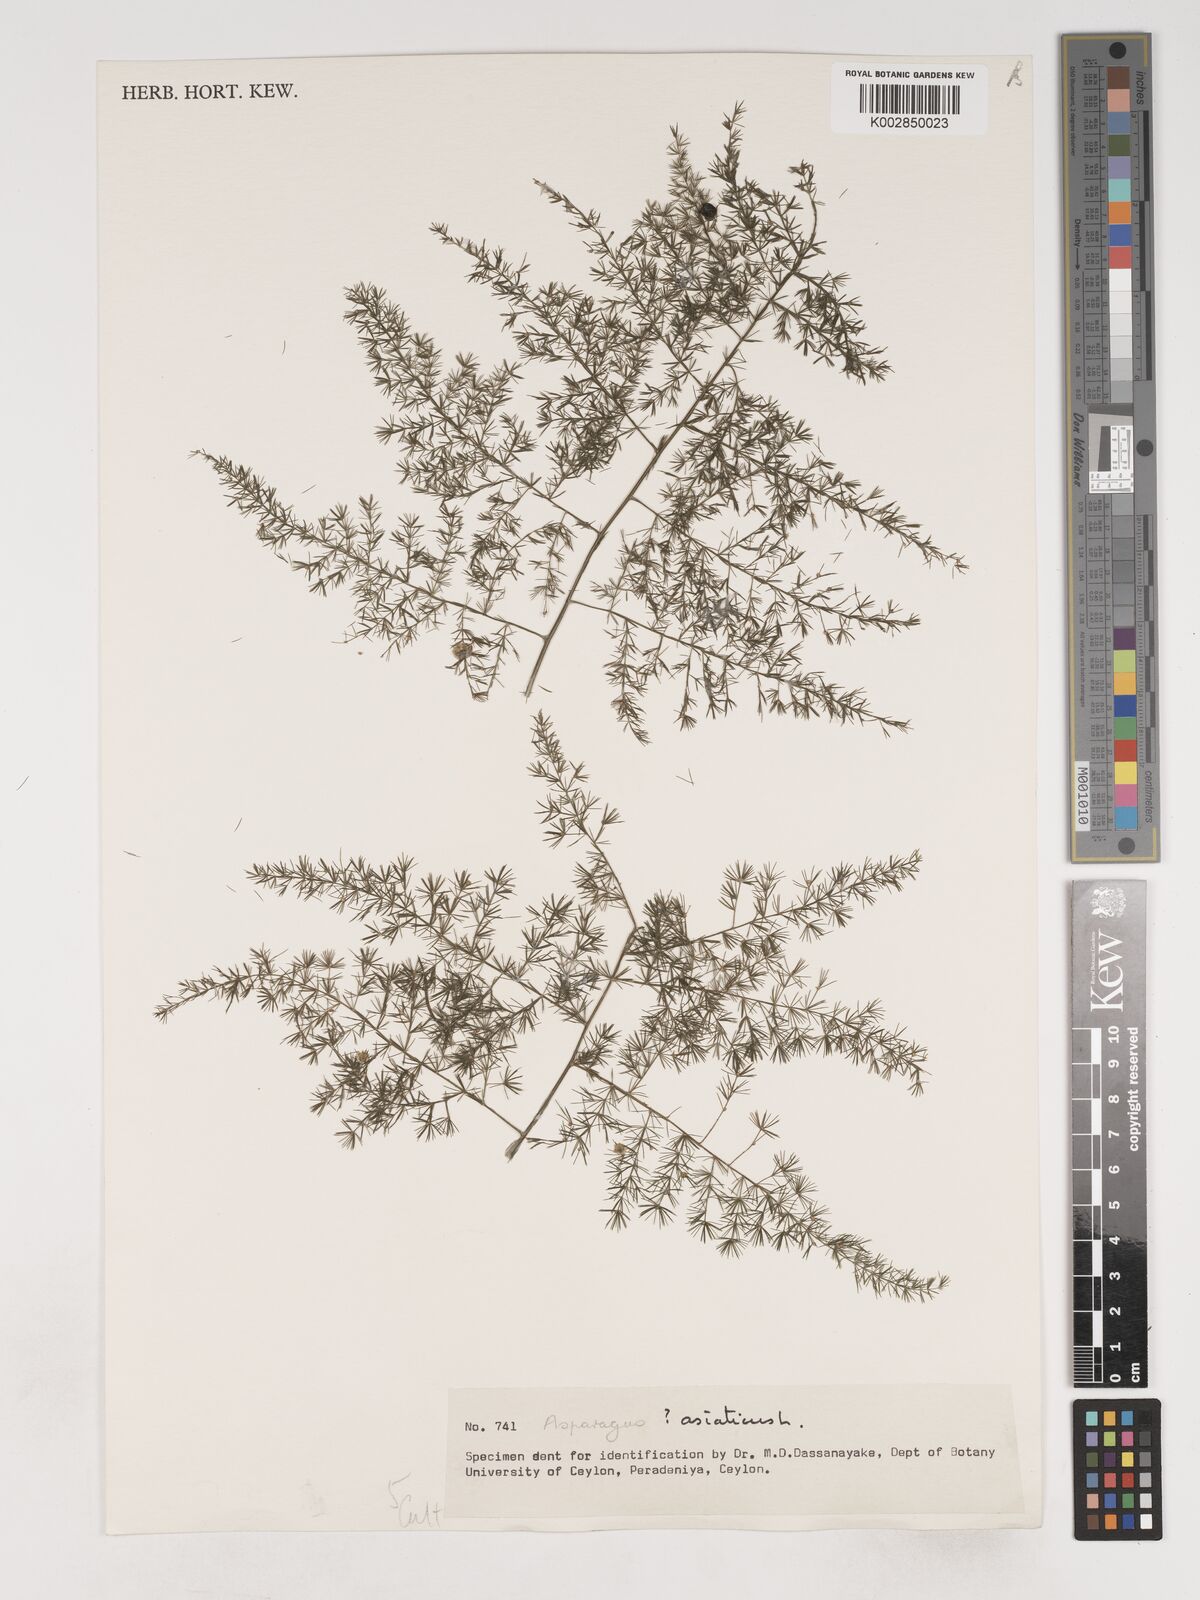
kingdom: Plantae
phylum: Tracheophyta
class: Liliopsida
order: Asparagales
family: Asparagaceae
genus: Asparagus
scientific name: Asparagus africanus
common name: Asparagus-fern
